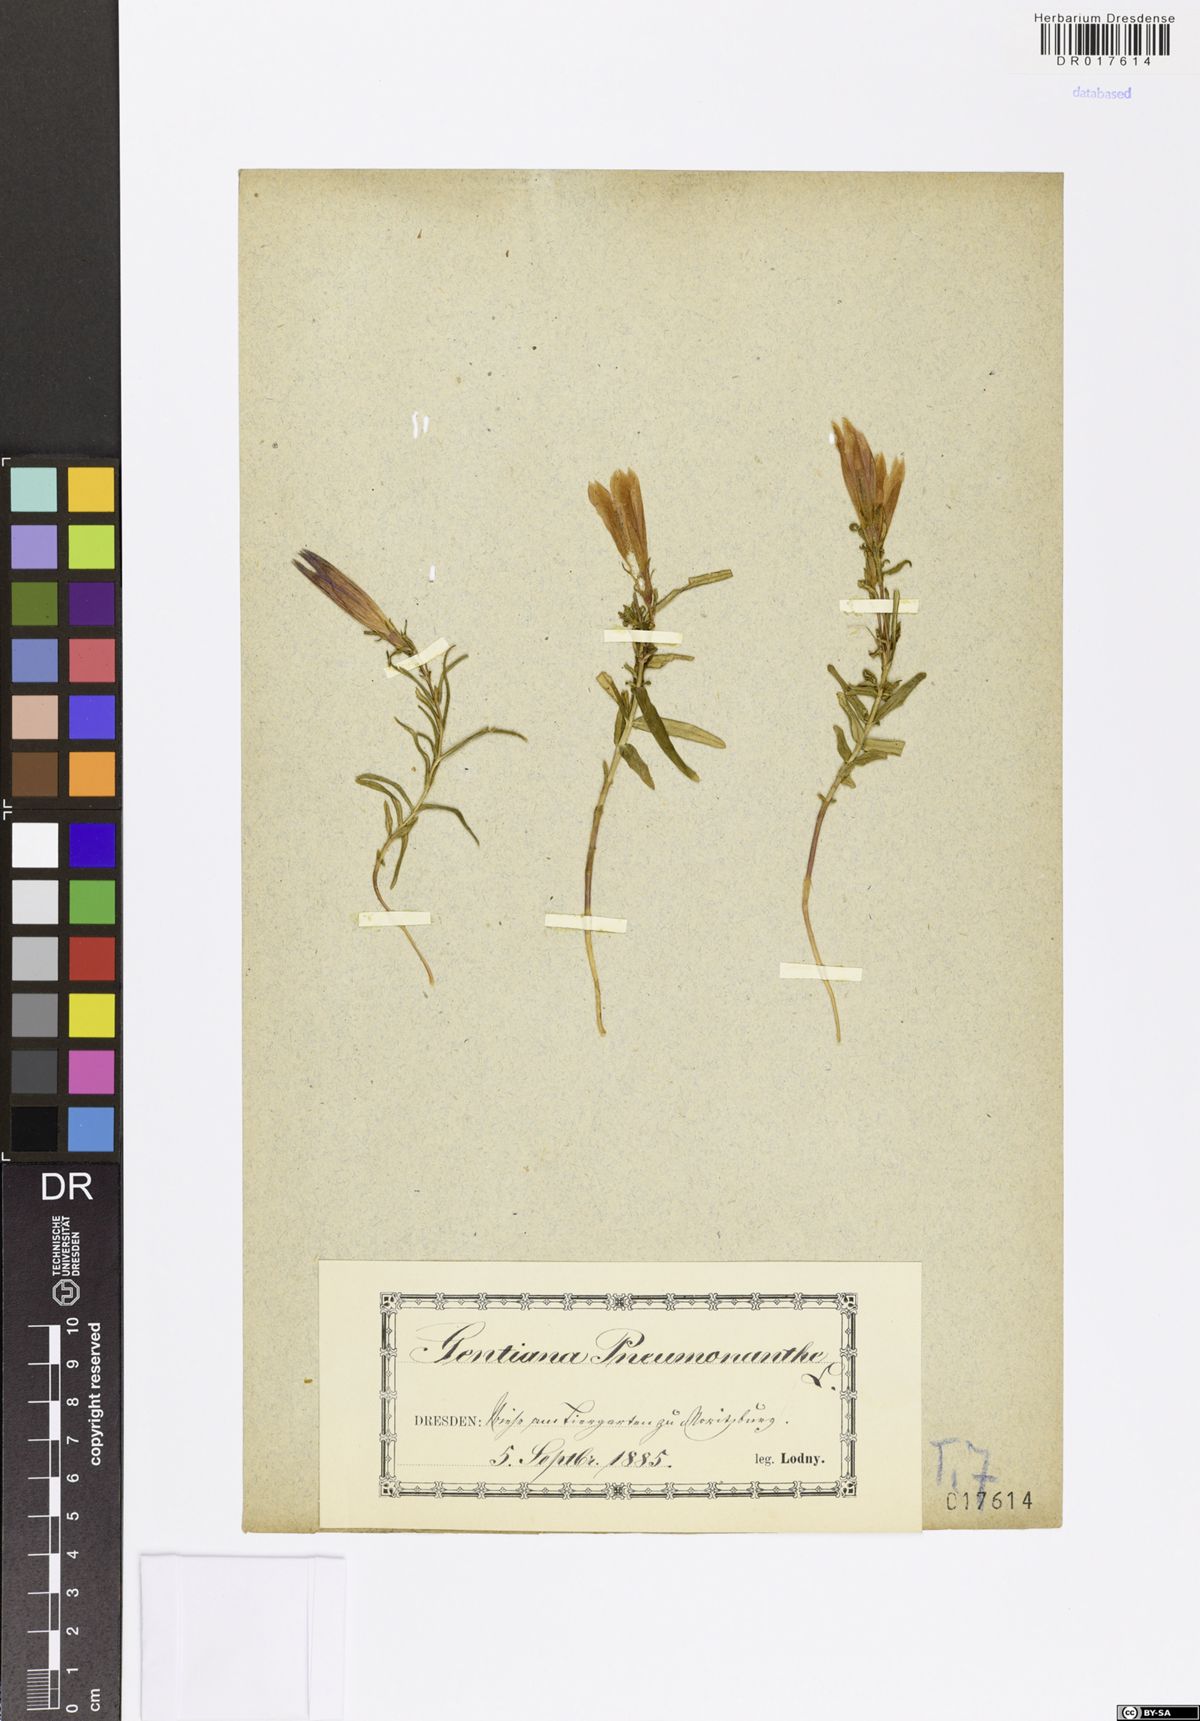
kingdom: Plantae
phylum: Tracheophyta
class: Magnoliopsida
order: Gentianales
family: Gentianaceae
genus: Gentiana
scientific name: Gentiana pneumonanthe
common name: Marsh gentian
